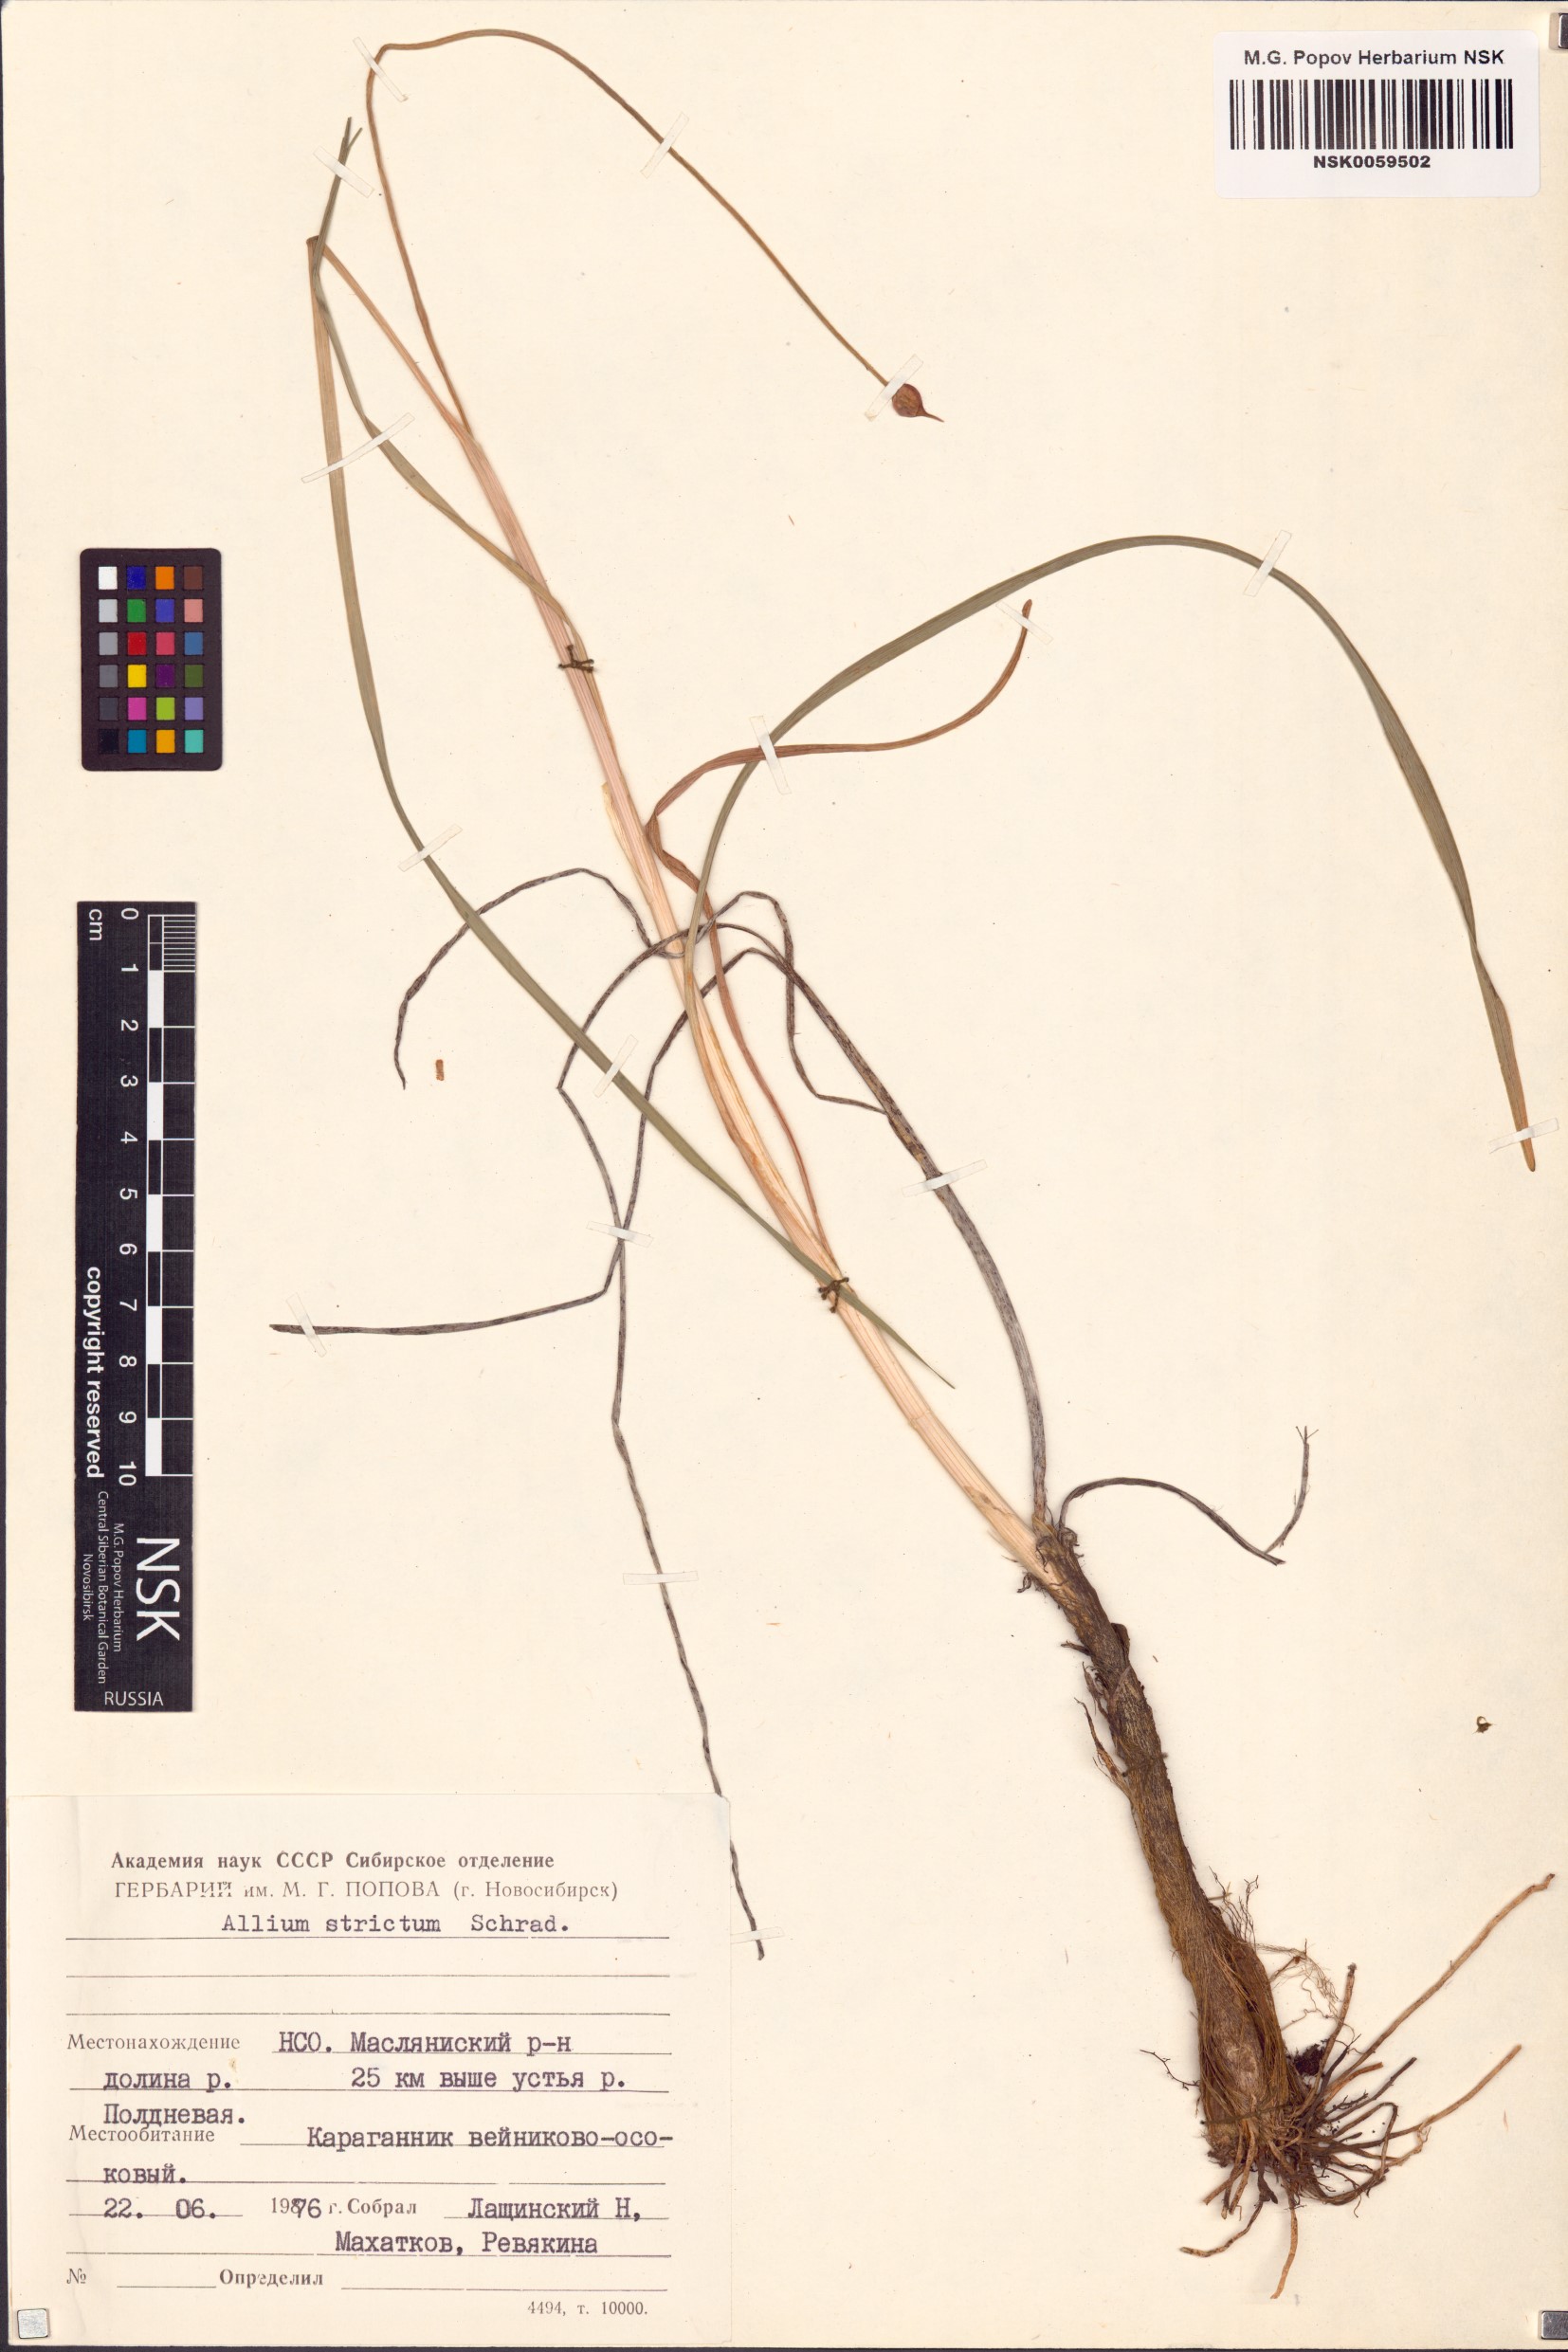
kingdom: Plantae
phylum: Tracheophyta
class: Liliopsida
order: Asparagales
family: Amaryllidaceae
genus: Allium
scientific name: Allium strictum
